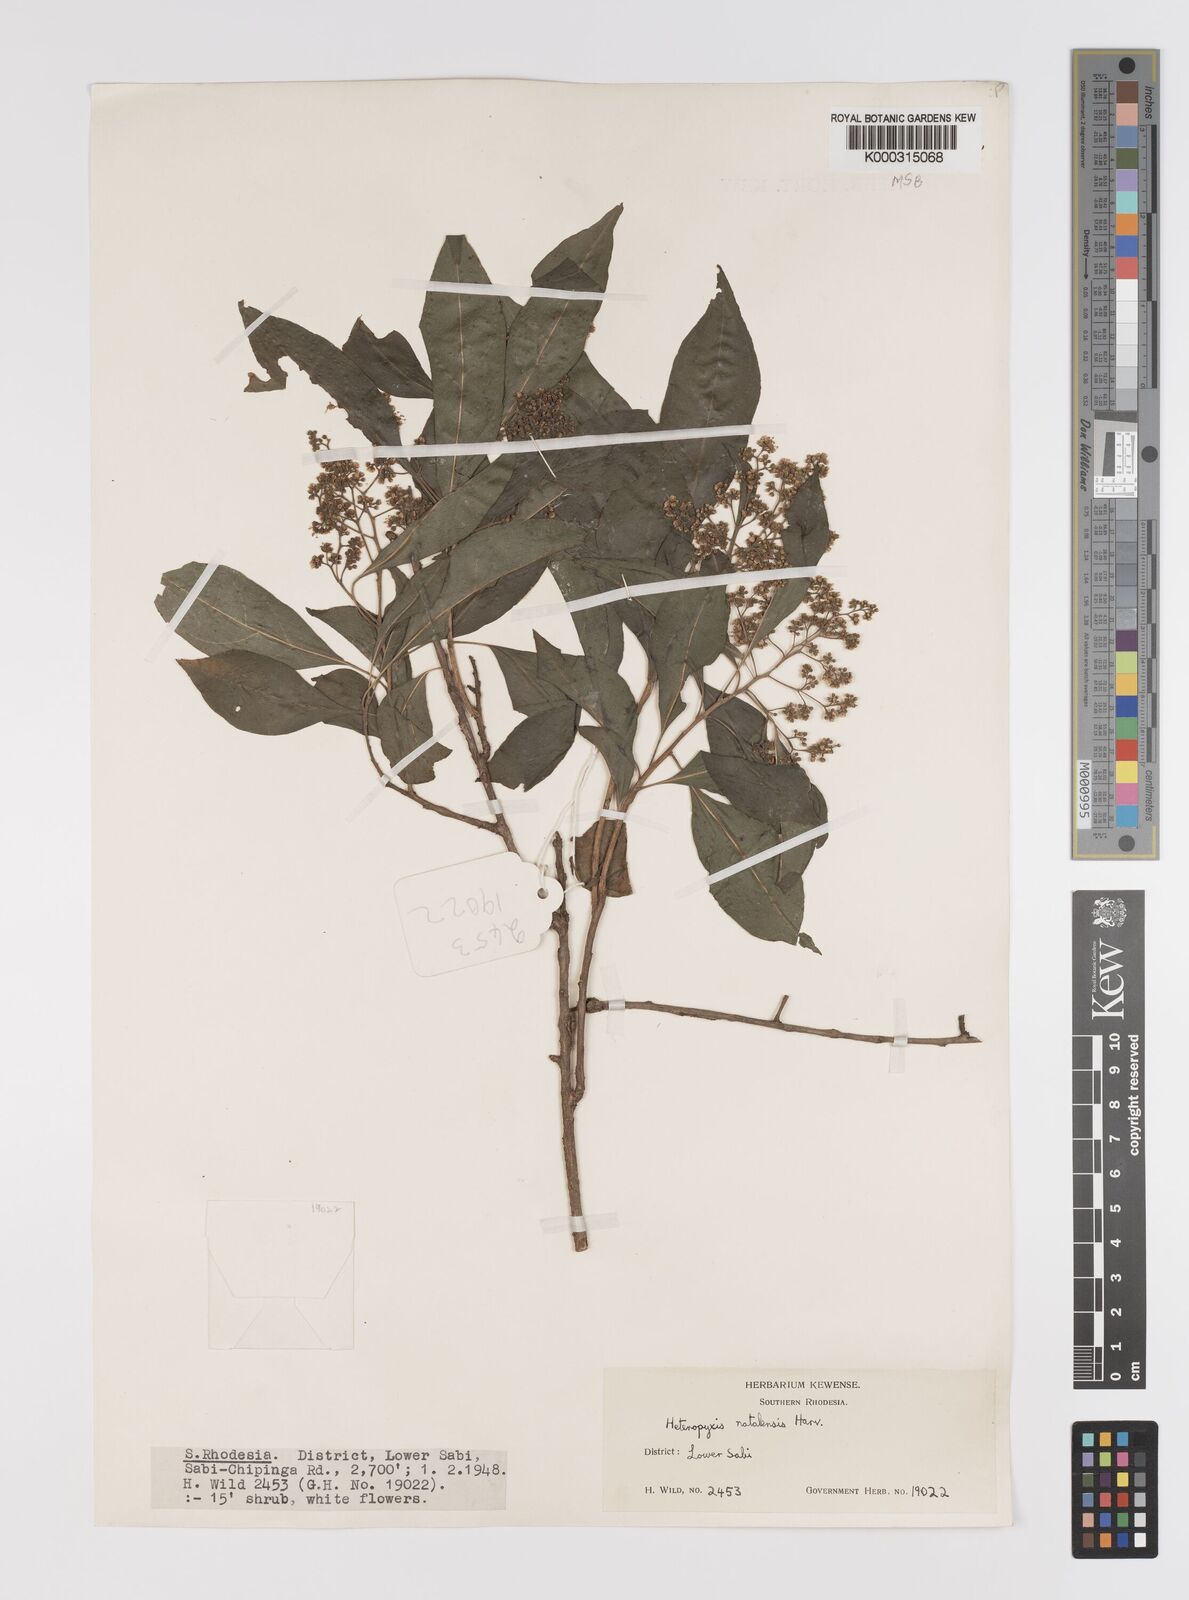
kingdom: Plantae
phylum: Tracheophyta
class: Magnoliopsida
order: Myrtales
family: Myrtaceae
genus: Heteropyxis
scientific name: Heteropyxis dehniae
